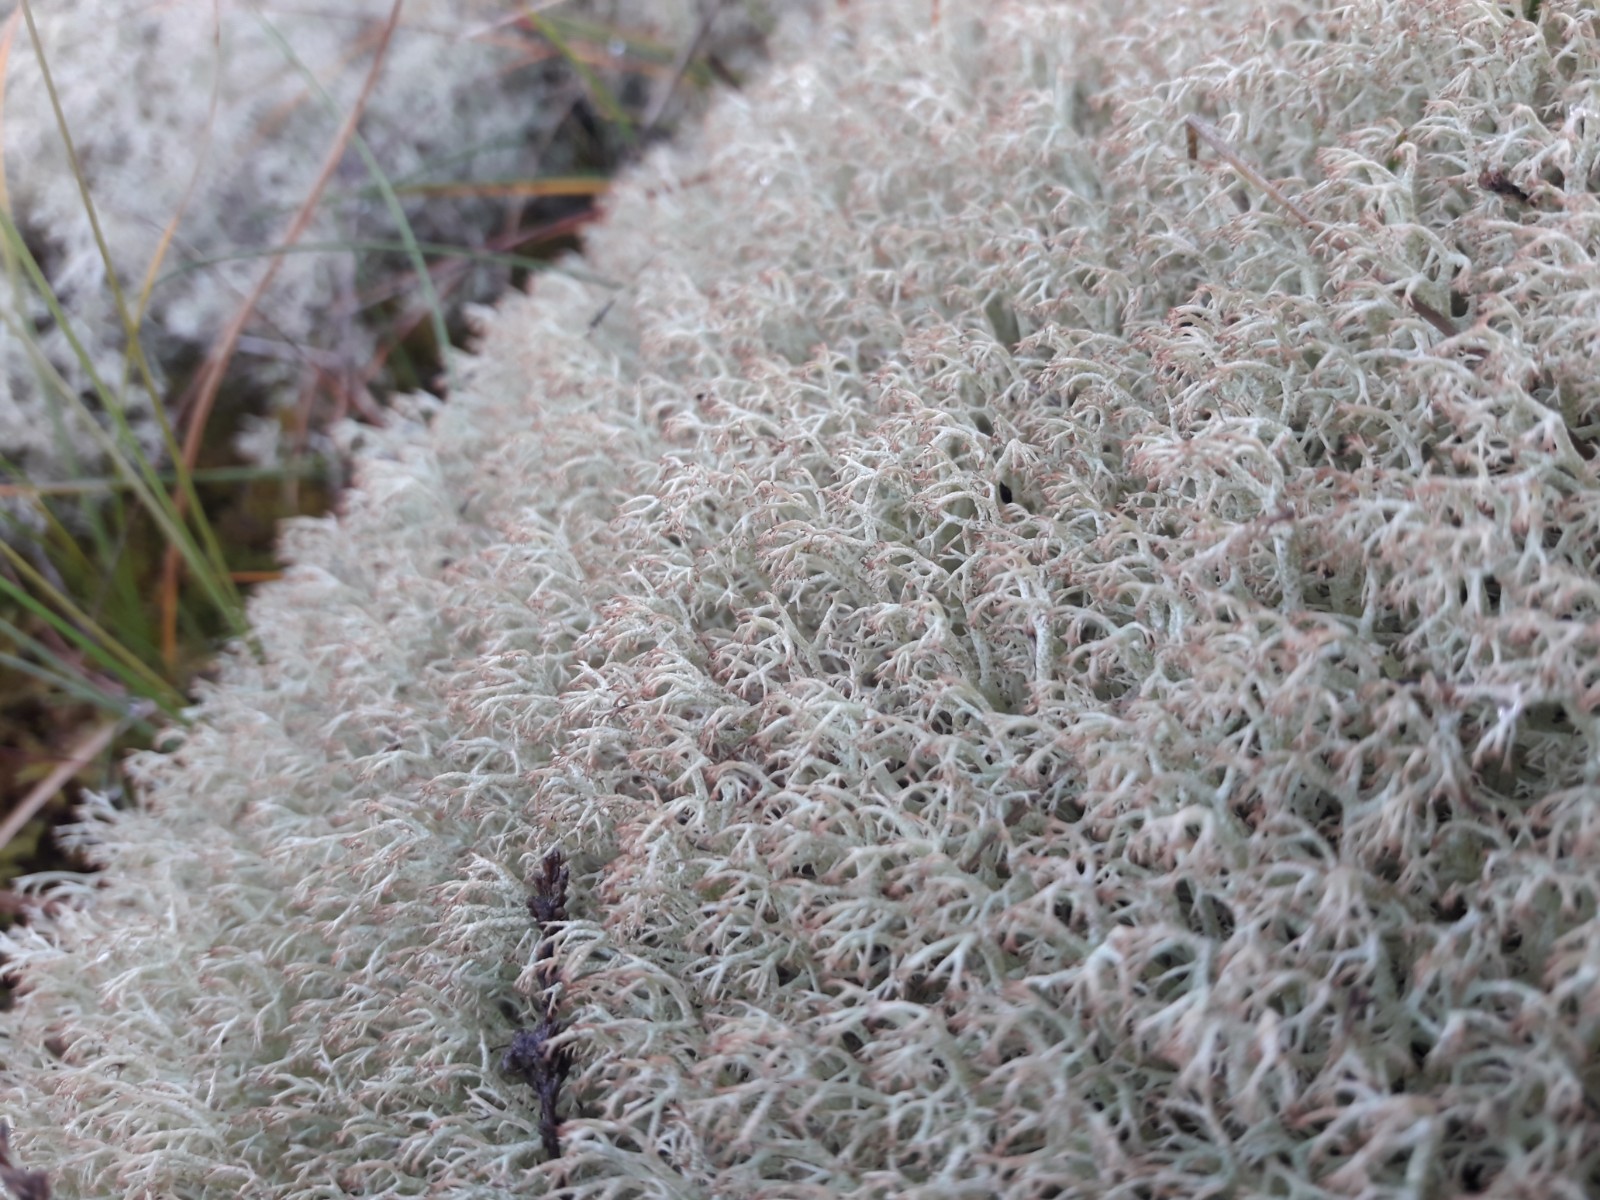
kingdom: Fungi
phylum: Ascomycota
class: Lecanoromycetes
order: Lecanorales
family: Cladoniaceae
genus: Cladonia
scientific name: Cladonia ciliata
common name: spinkel rensdyrlav
